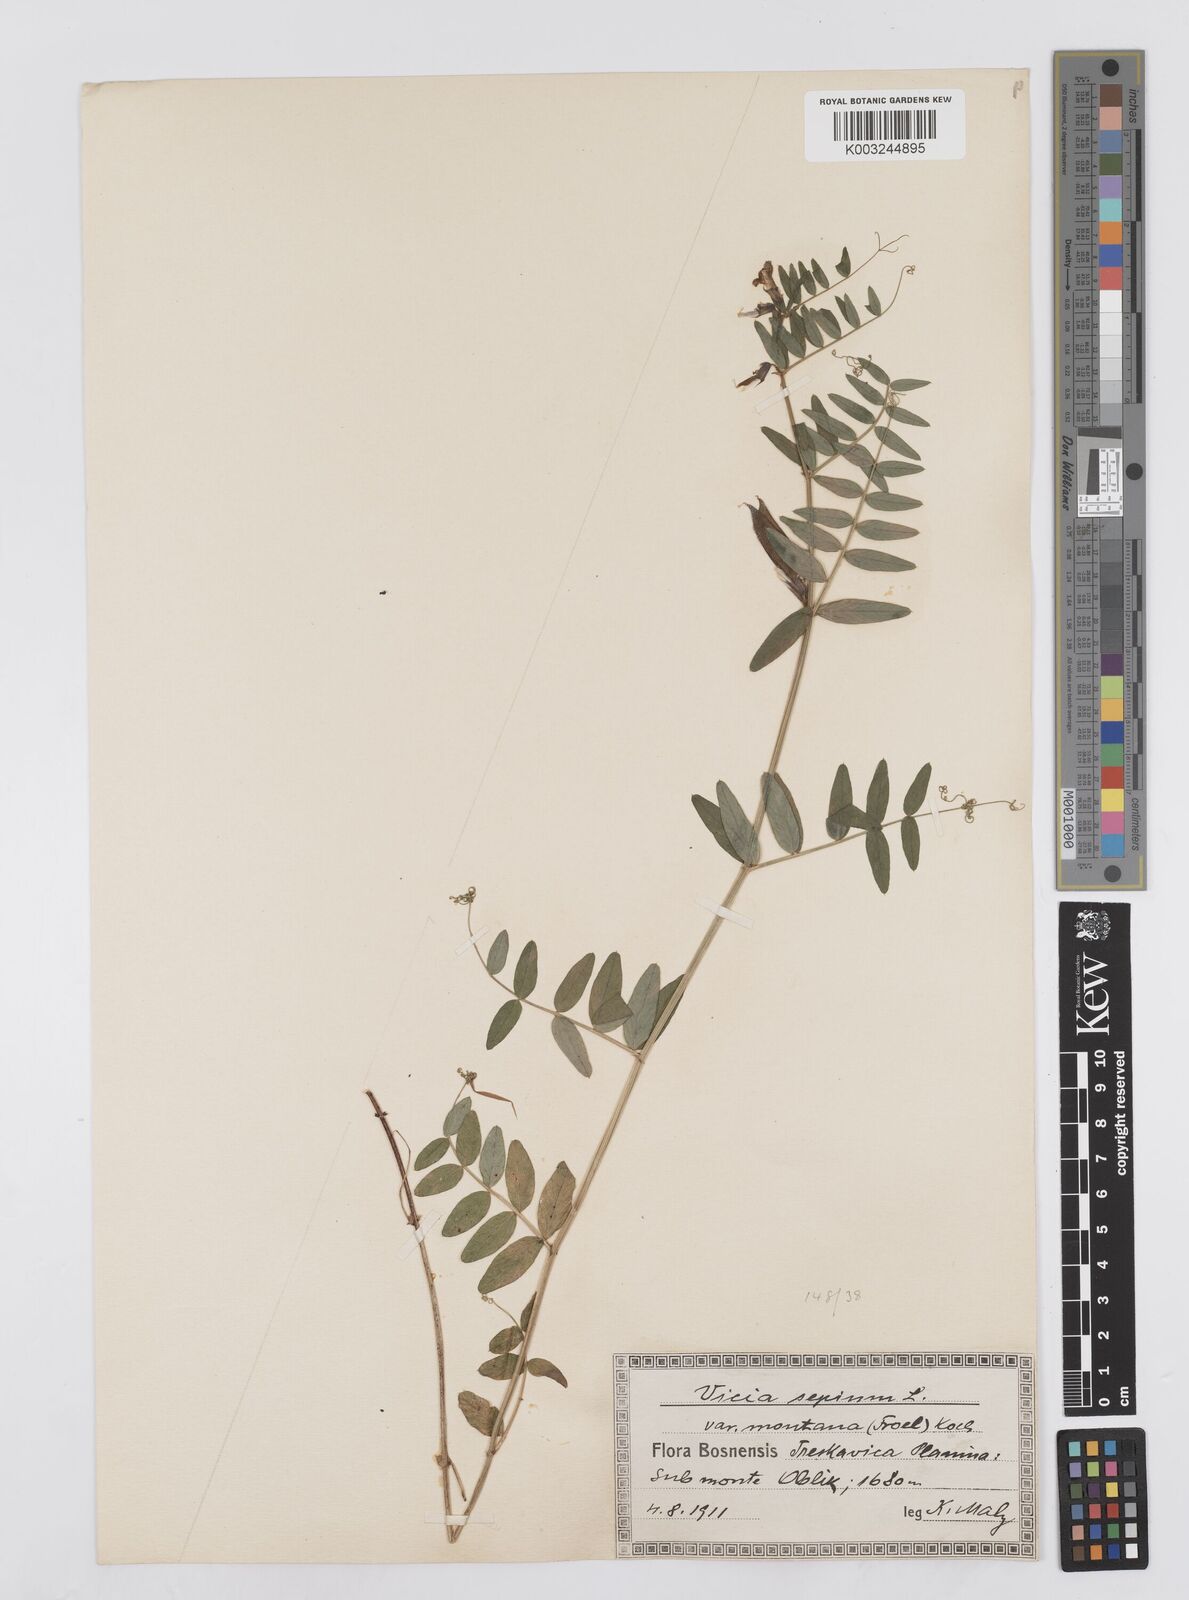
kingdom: Plantae
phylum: Tracheophyta
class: Magnoliopsida
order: Fabales
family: Fabaceae
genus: Vicia
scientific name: Vicia sepium
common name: Bush vetch
